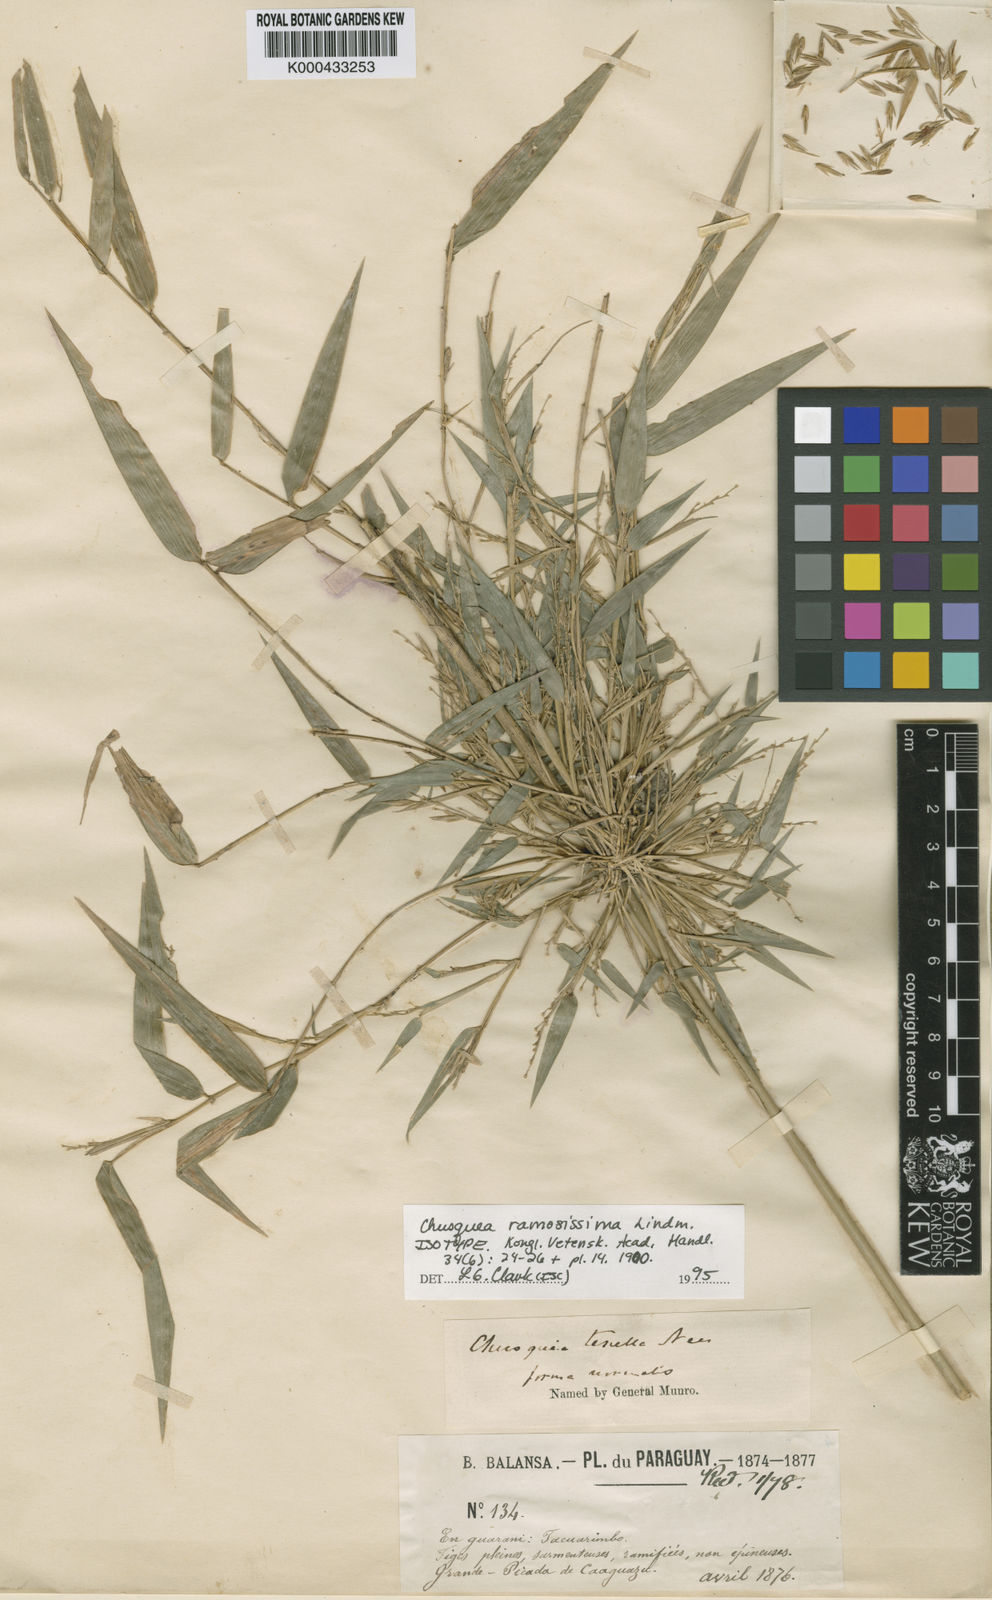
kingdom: Plantae
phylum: Tracheophyta
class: Liliopsida
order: Poales
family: Poaceae
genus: Chusquea
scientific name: Chusquea
